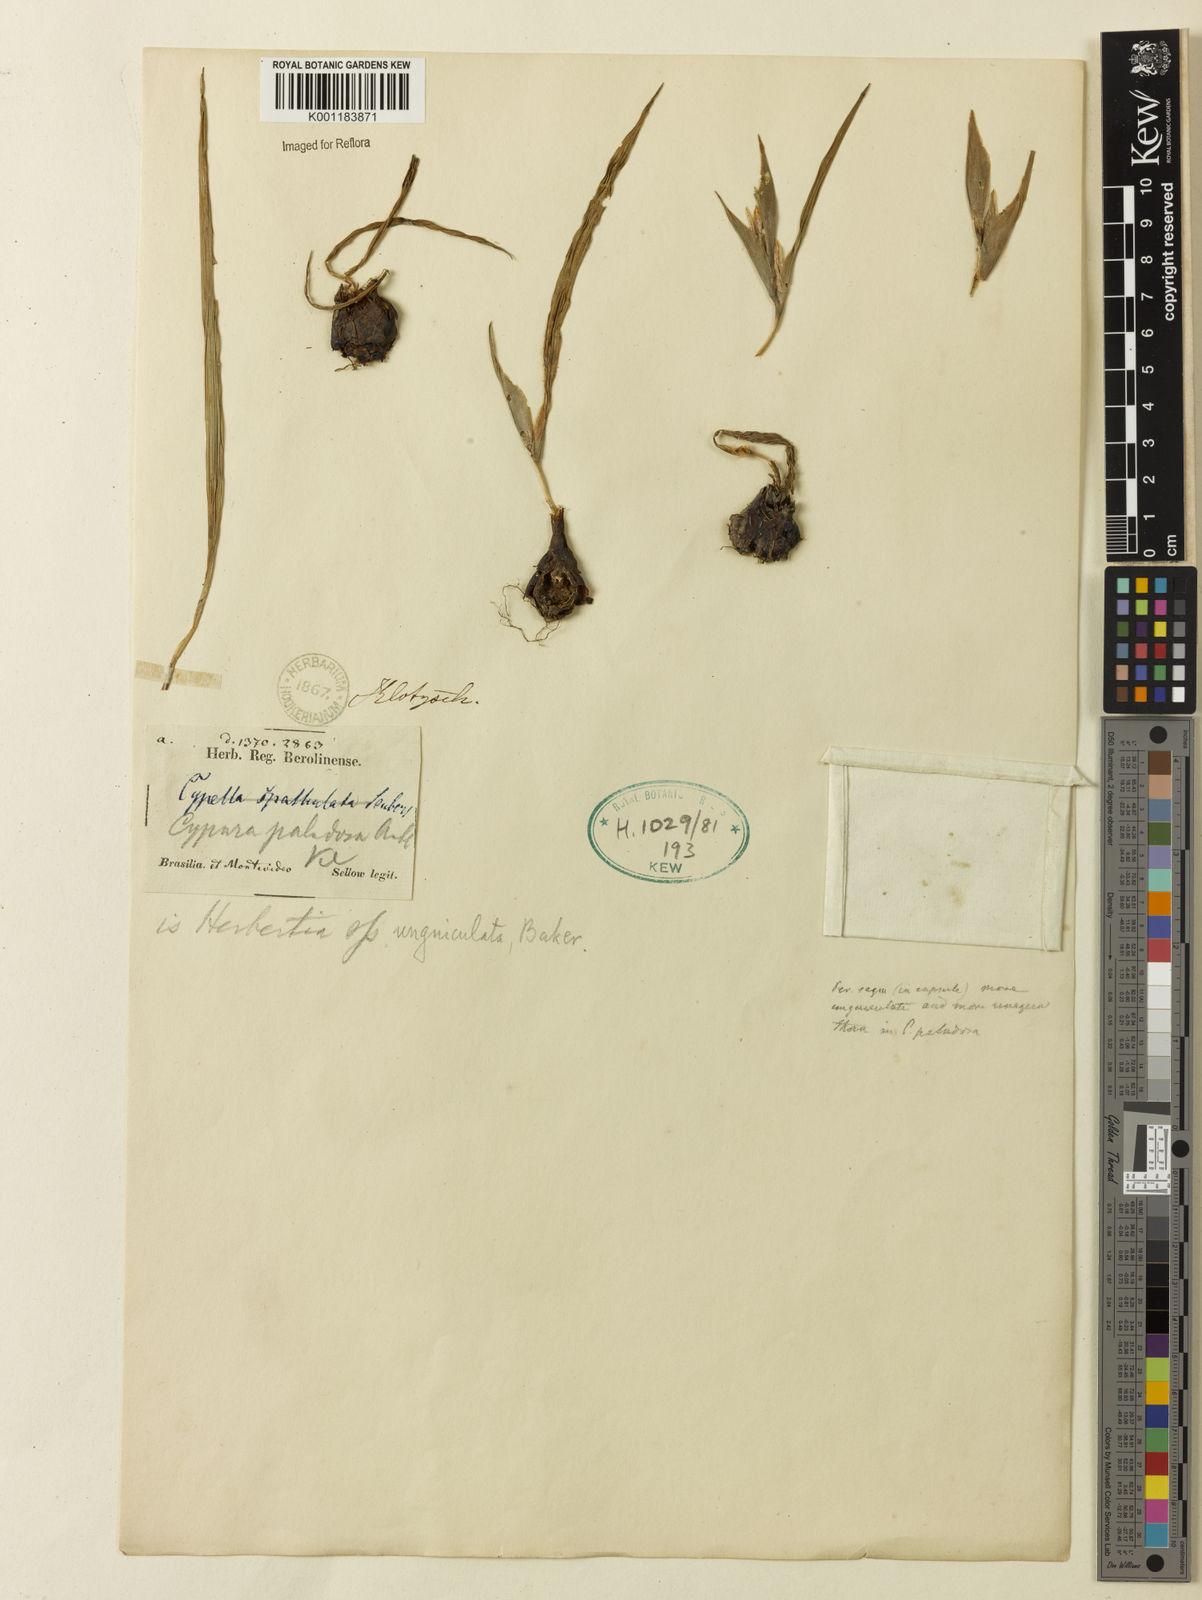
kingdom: Plantae
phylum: Tracheophyta
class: Liliopsida
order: Asparagales
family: Iridaceae
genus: Cipura
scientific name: Cipura paludosa
